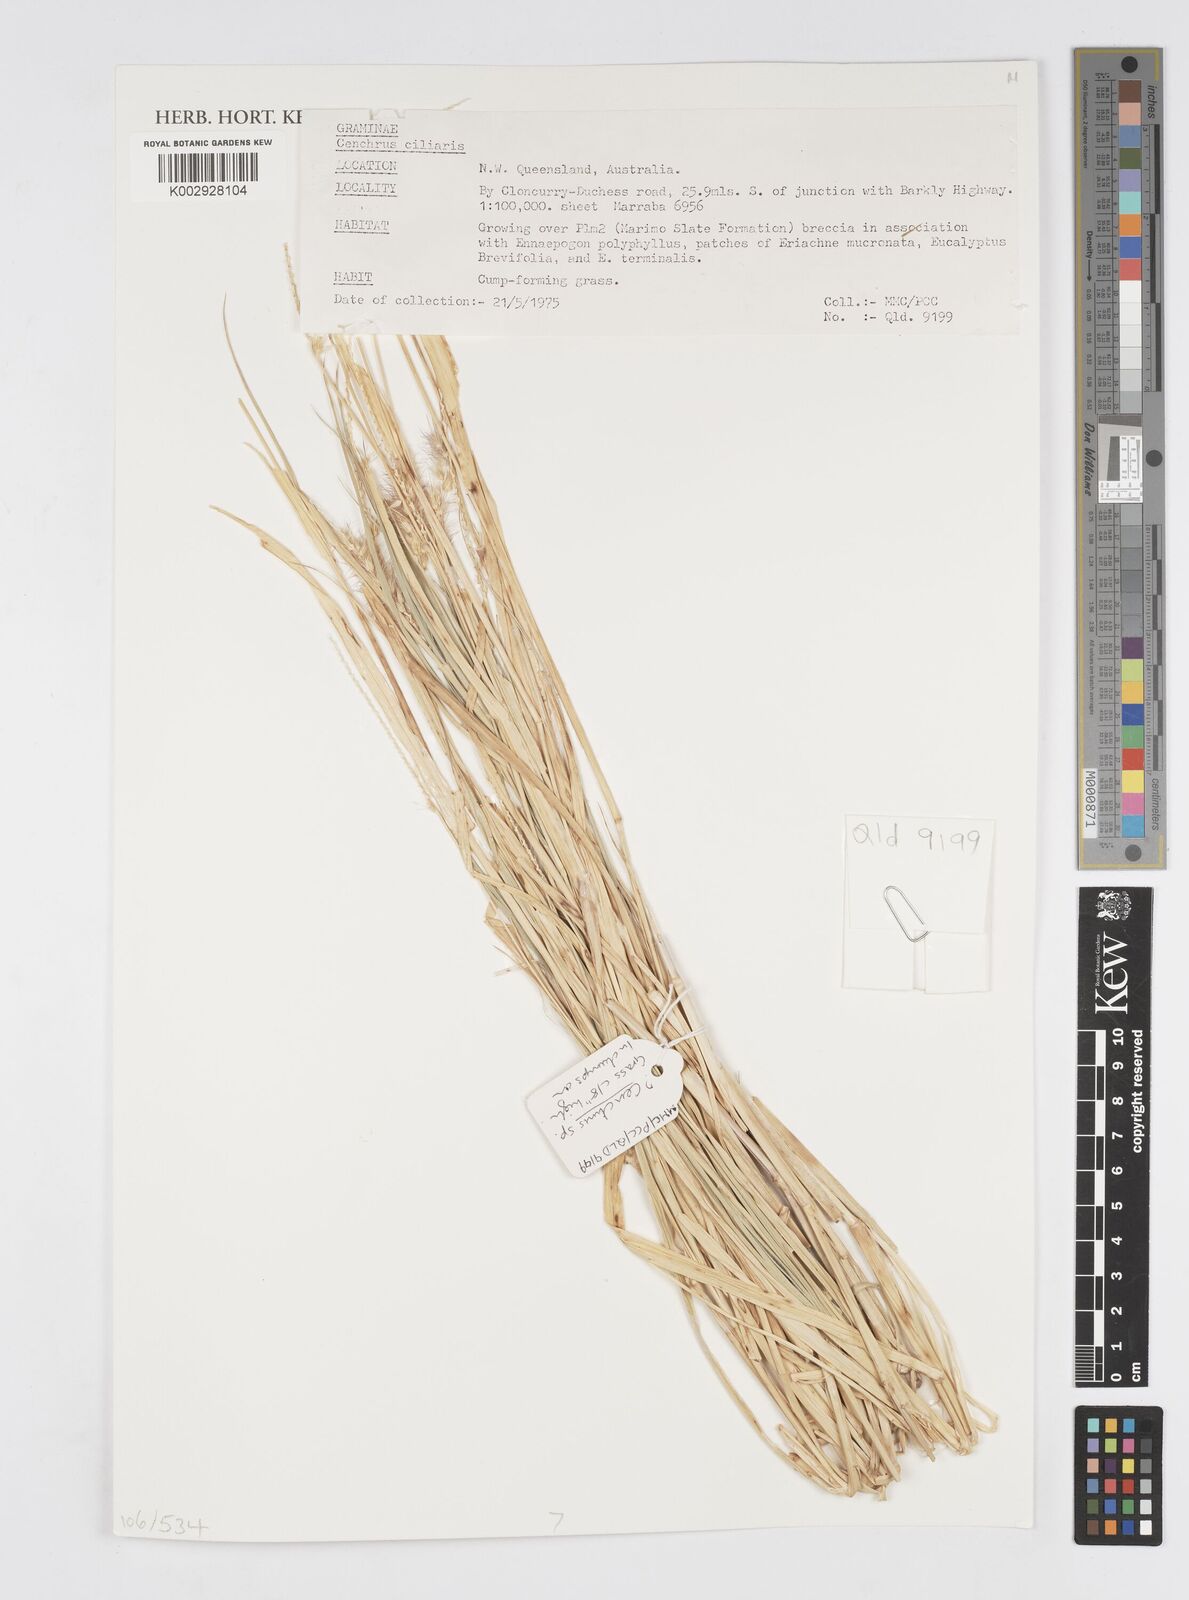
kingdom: Plantae
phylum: Tracheophyta
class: Liliopsida
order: Poales
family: Poaceae
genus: Cenchrus
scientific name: Cenchrus ciliaris
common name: Buffelgrass
